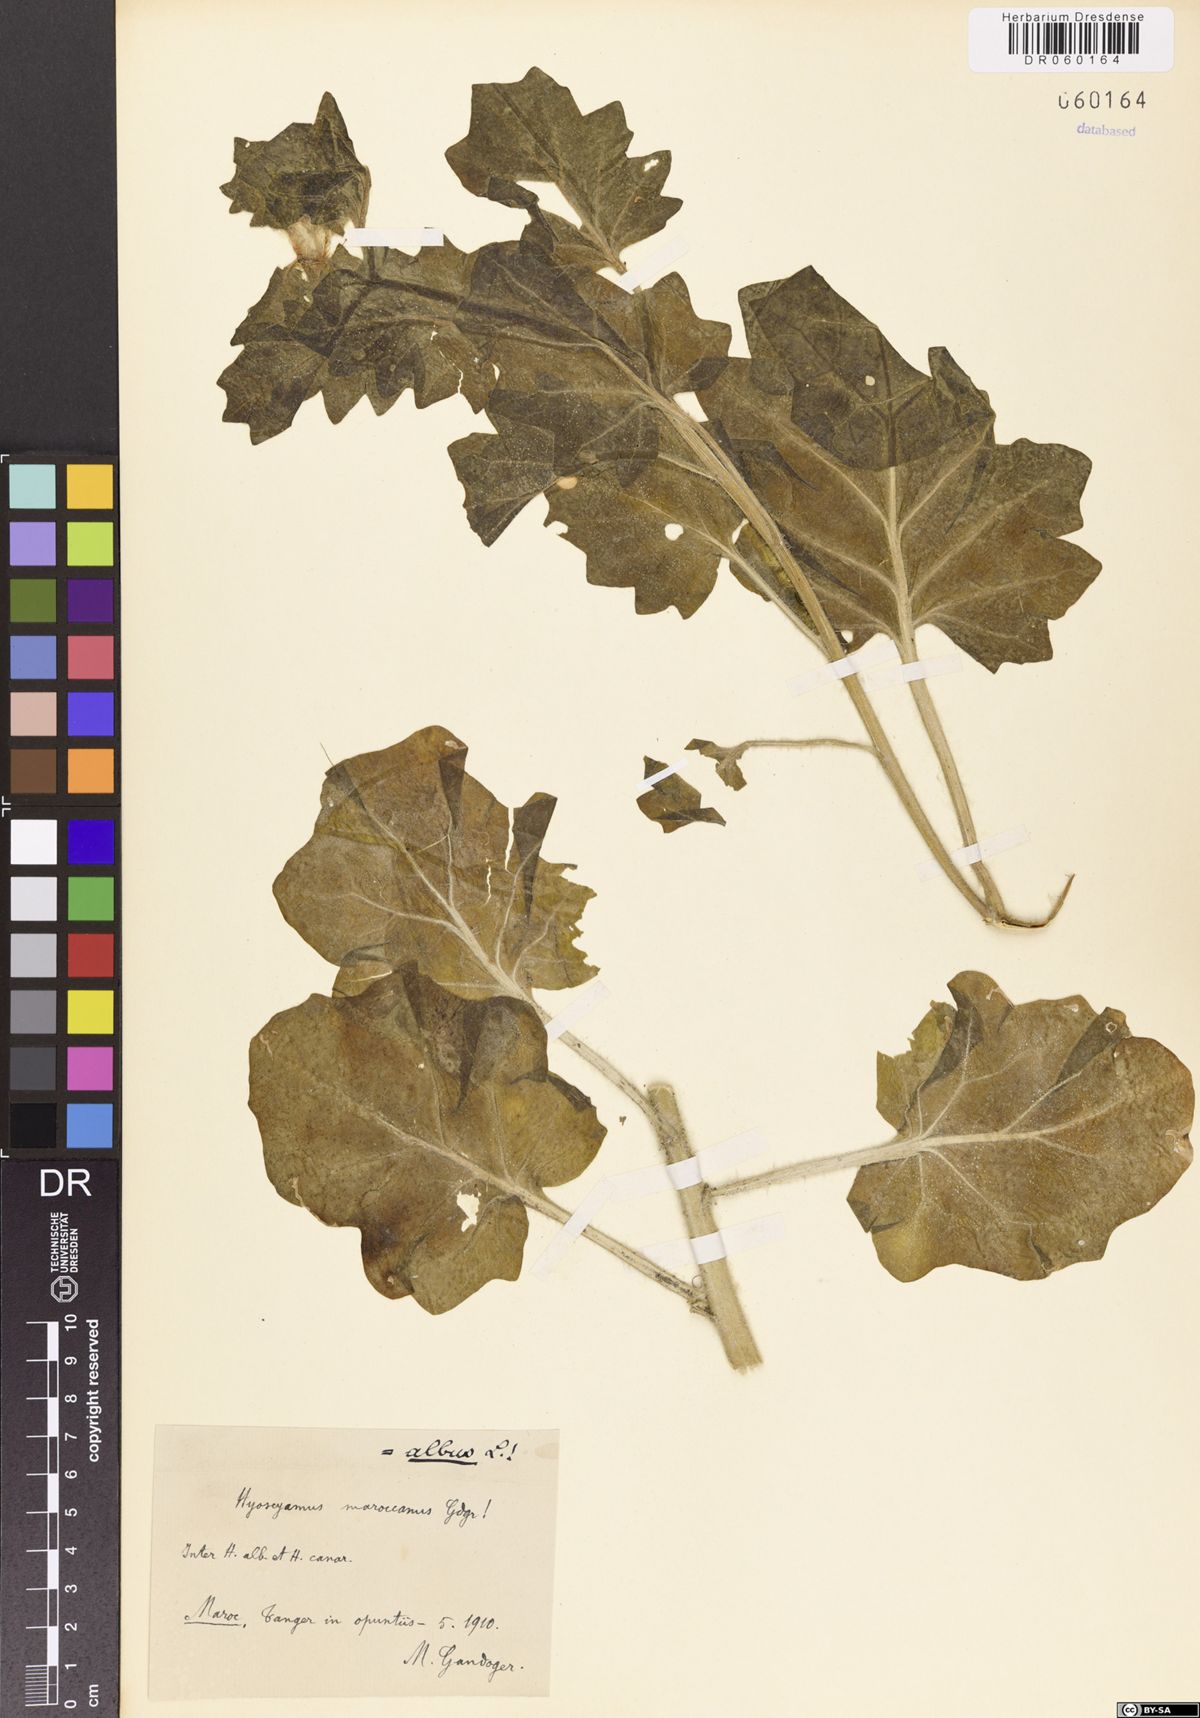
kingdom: Plantae
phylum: Tracheophyta
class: Magnoliopsida
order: Solanales
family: Solanaceae
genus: Hyoscyamus
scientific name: Hyoscyamus albus
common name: White henbane
